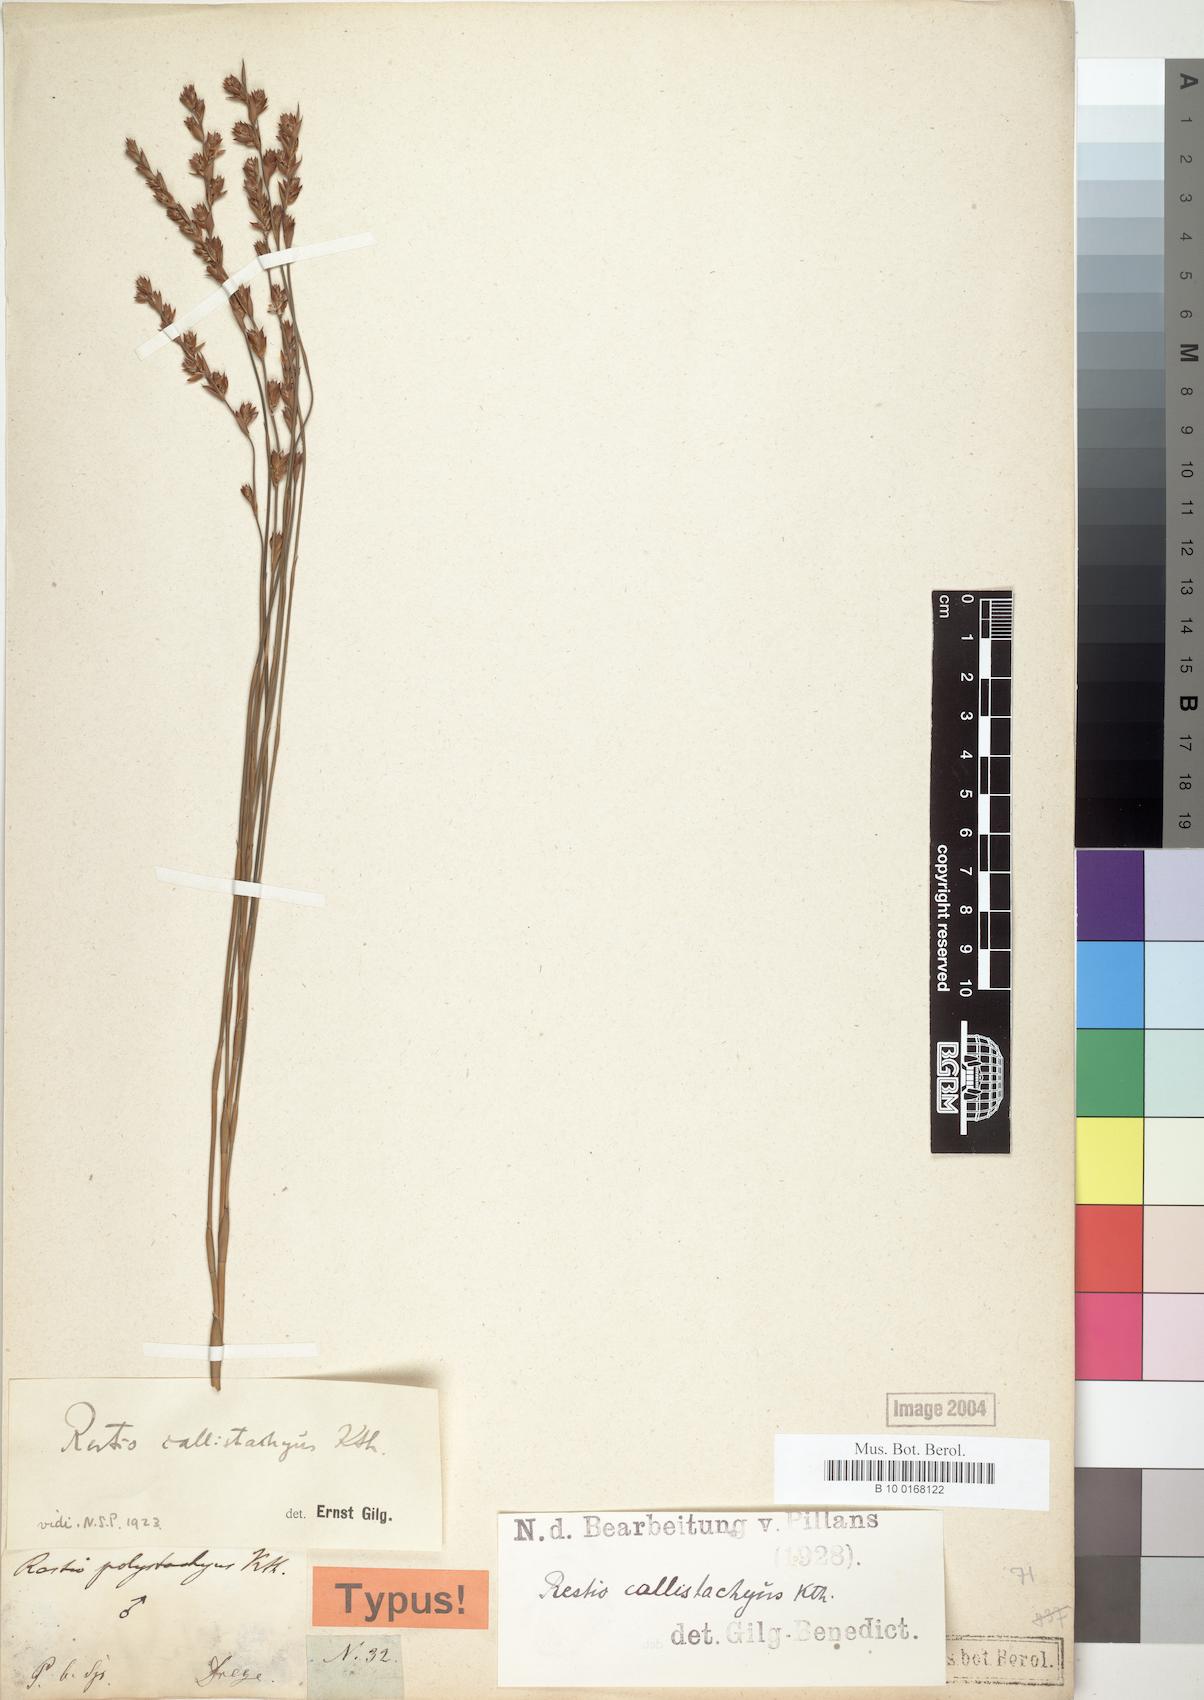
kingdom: Plantae
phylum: Tracheophyta
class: Liliopsida
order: Poales
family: Restionaceae
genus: Platycaulos
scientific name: Platycaulos callistachyus
